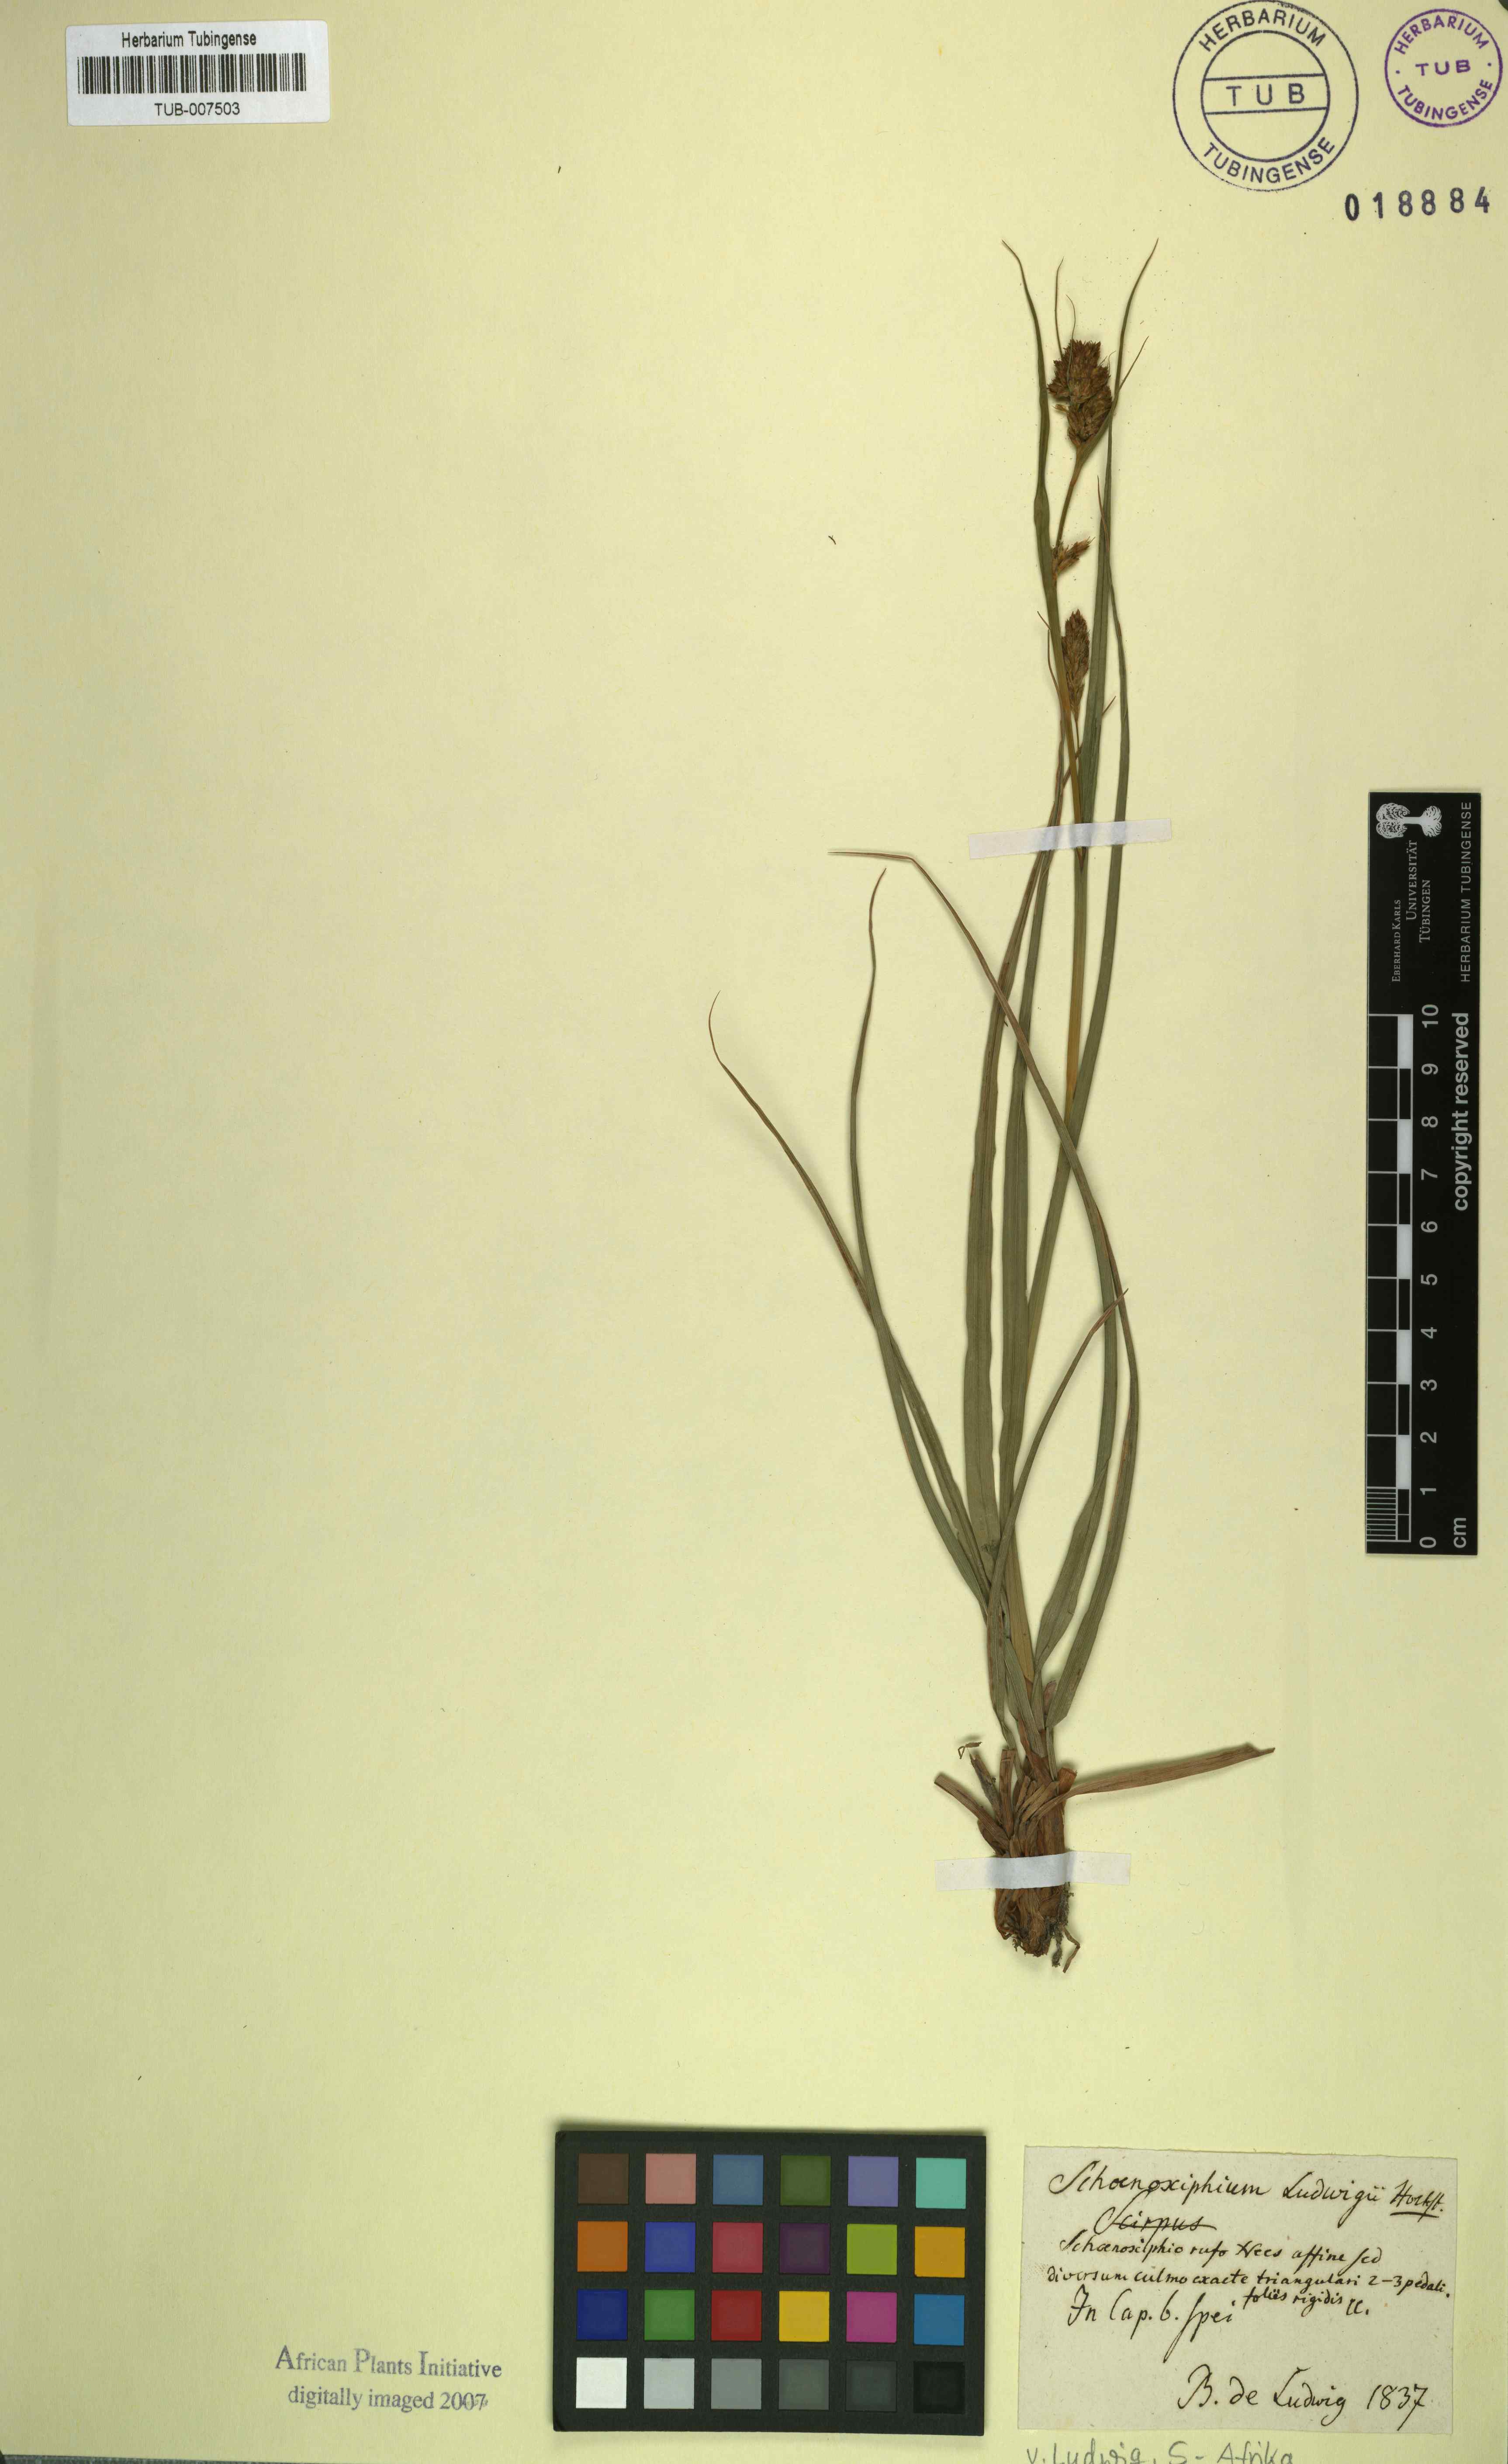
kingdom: Plantae
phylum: Tracheophyta
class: Liliopsida
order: Poales
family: Cyperaceae
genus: Carex
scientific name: Carex ludwigii
